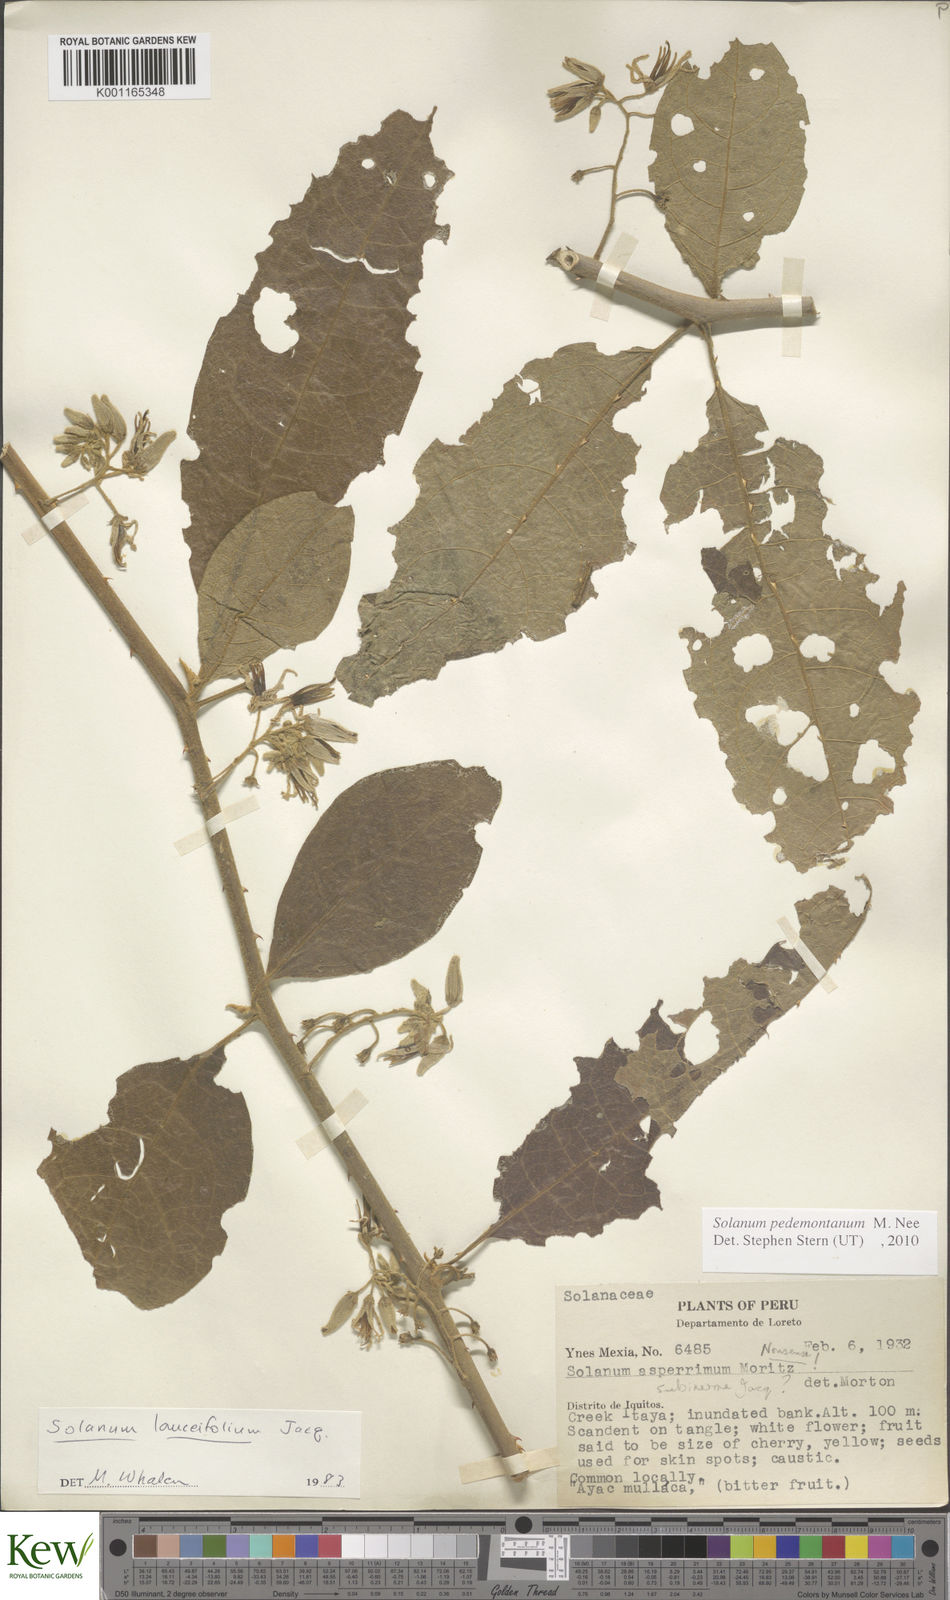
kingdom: Plantae
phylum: Tracheophyta
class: Magnoliopsida
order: Solanales
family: Solanaceae
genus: Solanum
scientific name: Solanum pedemontanum
